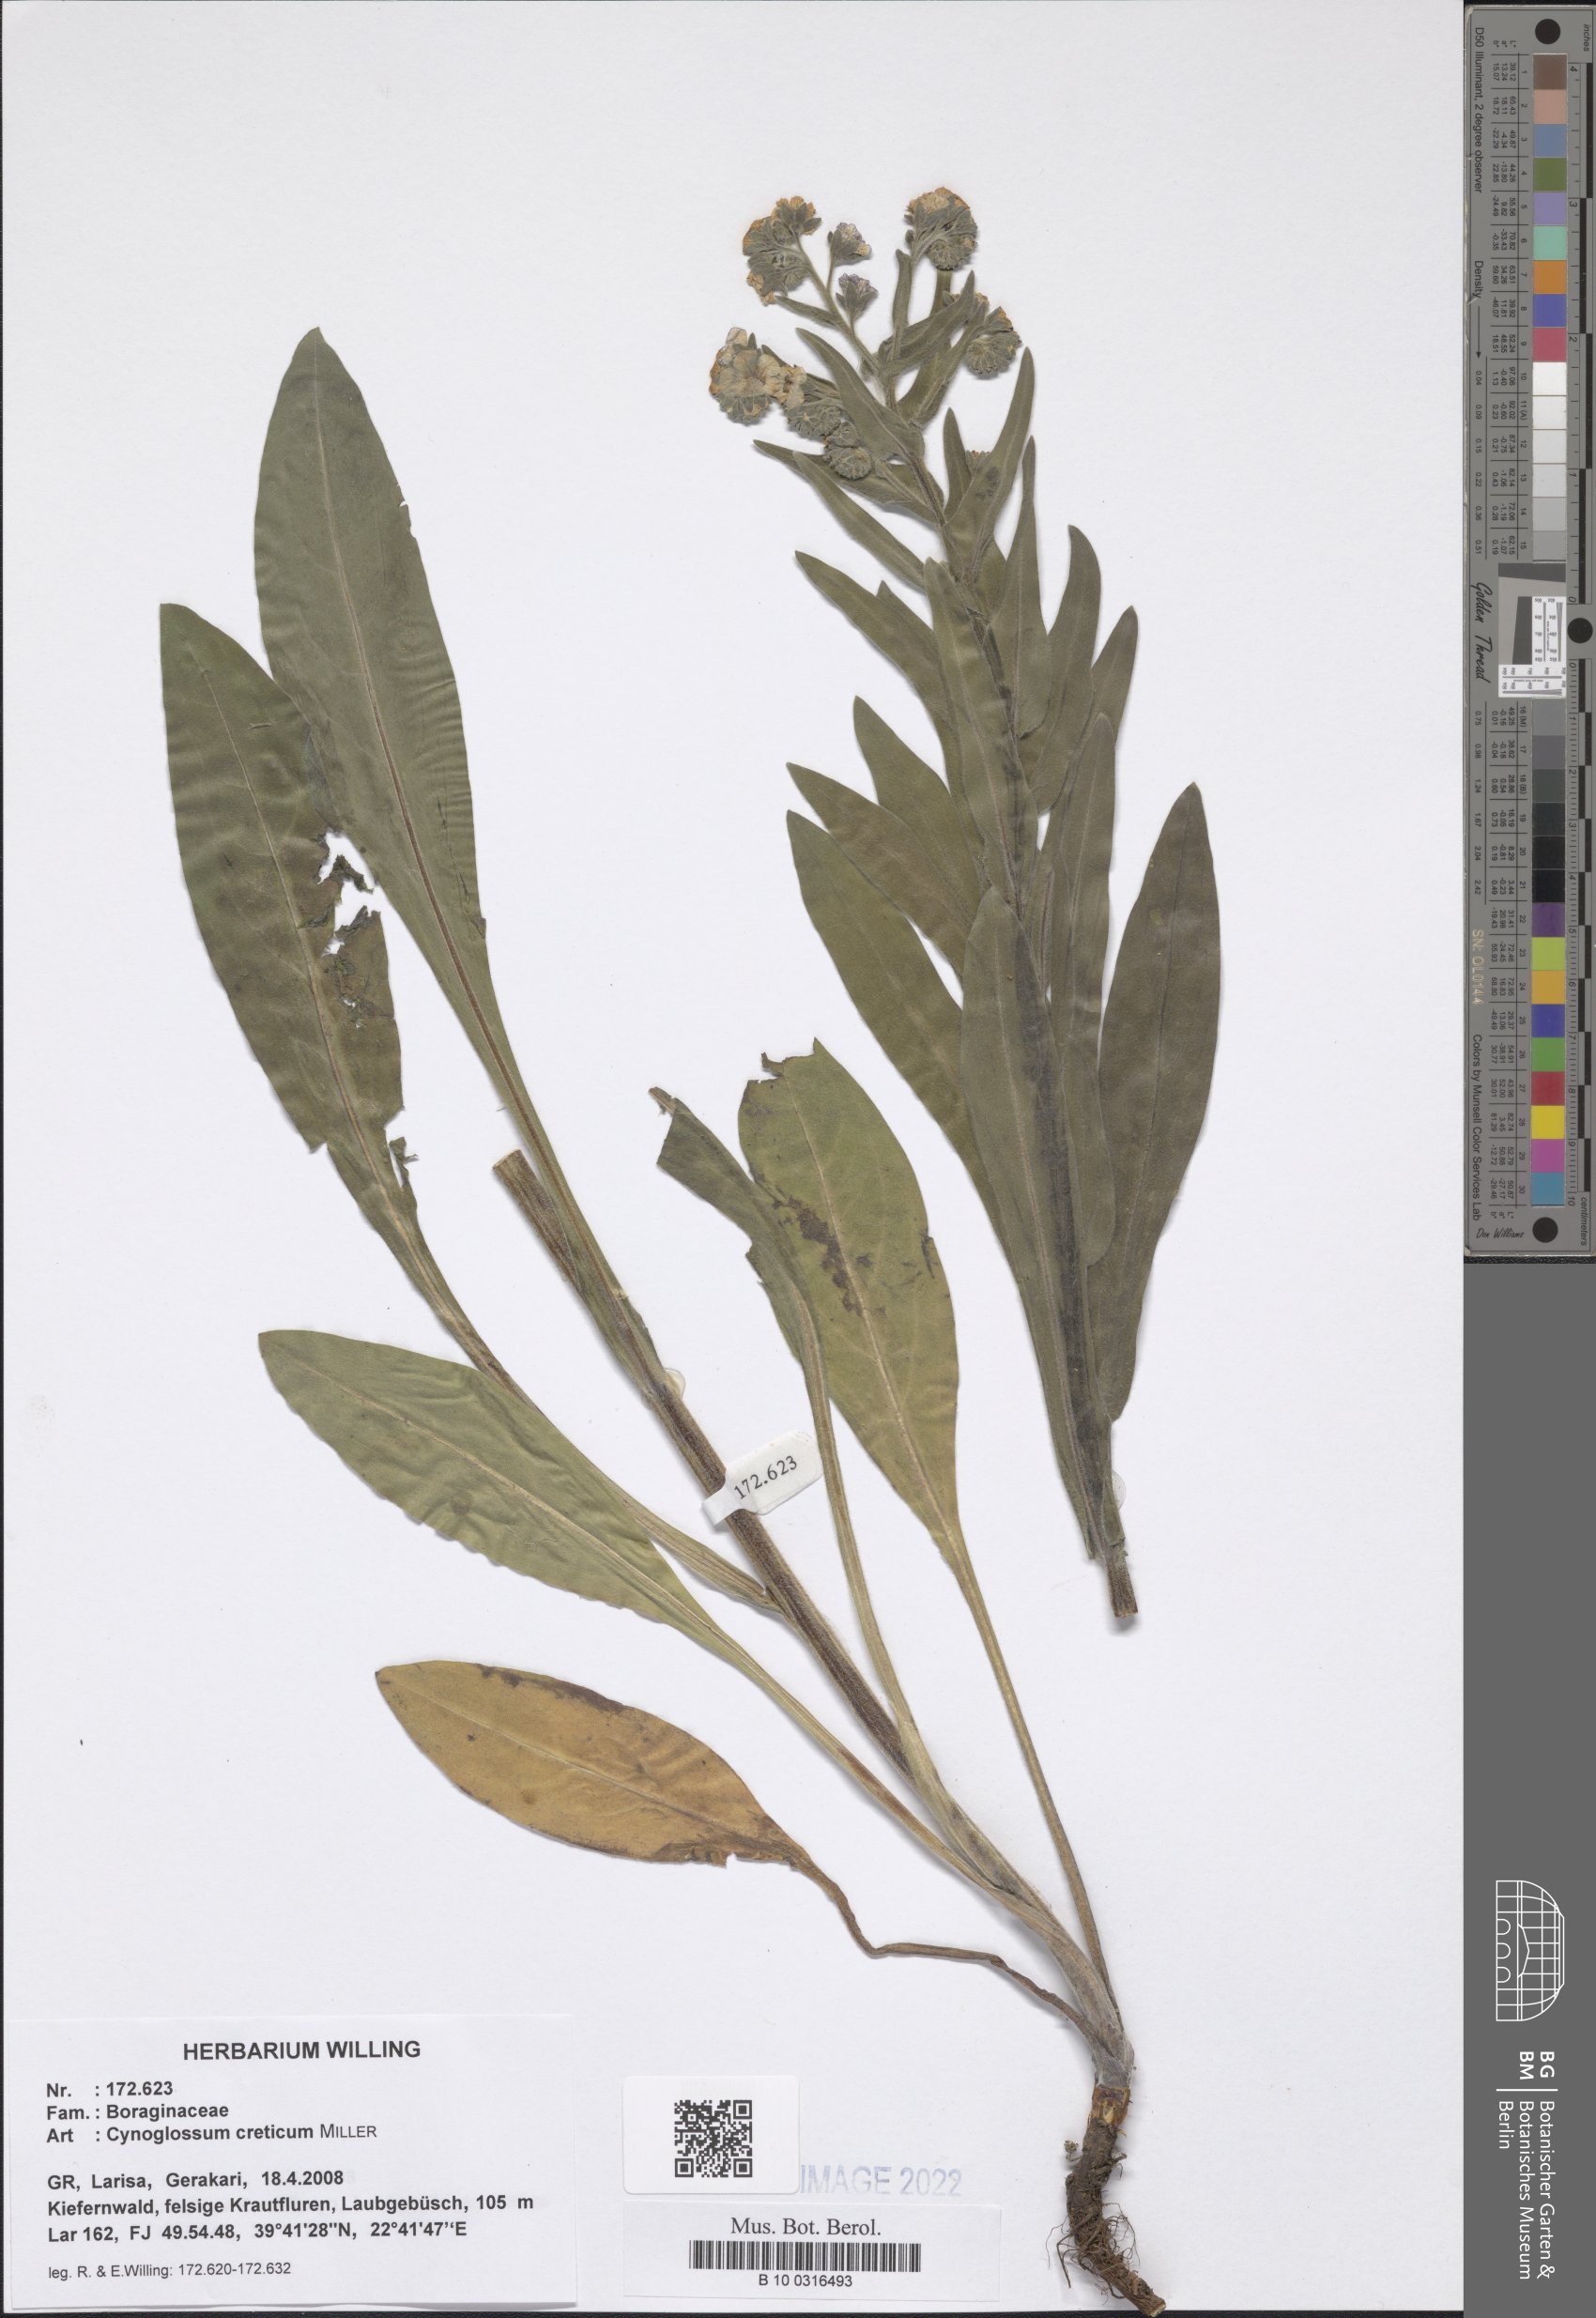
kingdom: Plantae
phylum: Tracheophyta
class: Magnoliopsida
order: Boraginales
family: Boraginaceae
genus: Cynoglossum
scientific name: Cynoglossum creticum
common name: Blue hound's tongue
